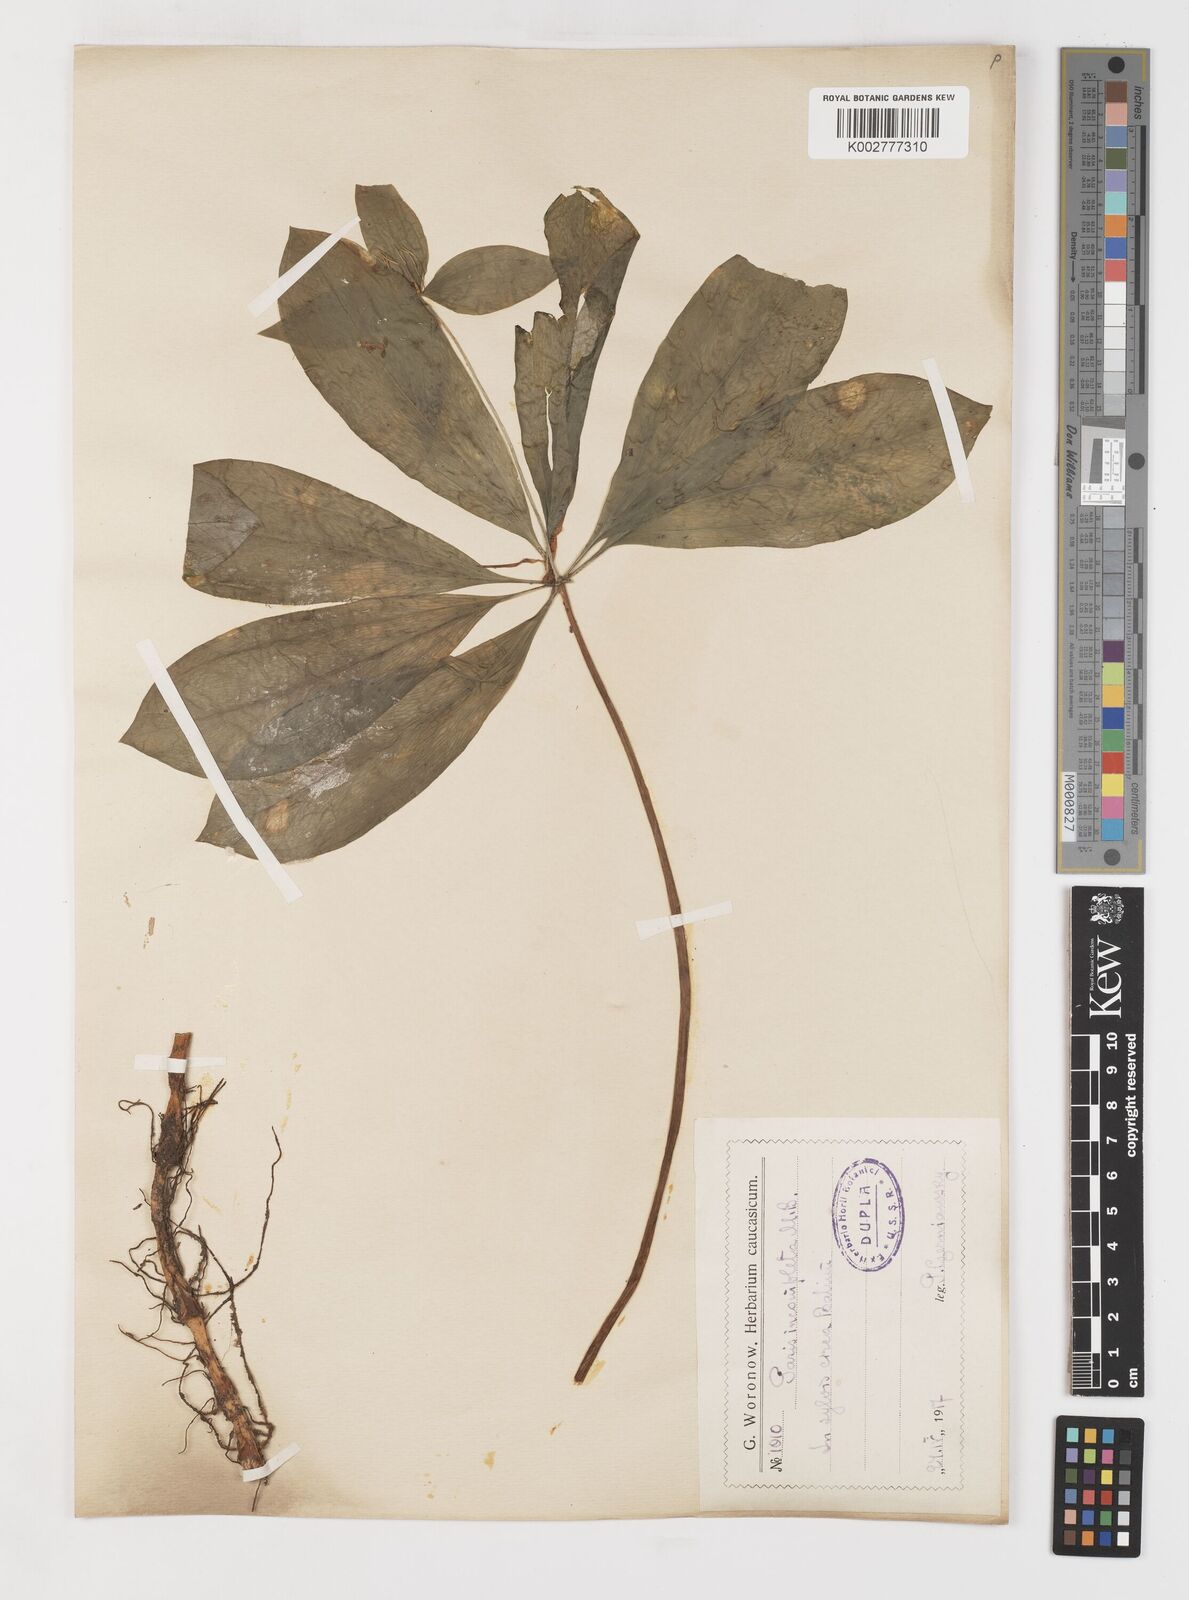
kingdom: Plantae
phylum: Tracheophyta
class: Liliopsida
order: Liliales
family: Melanthiaceae
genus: Paris
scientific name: Paris incompleta
